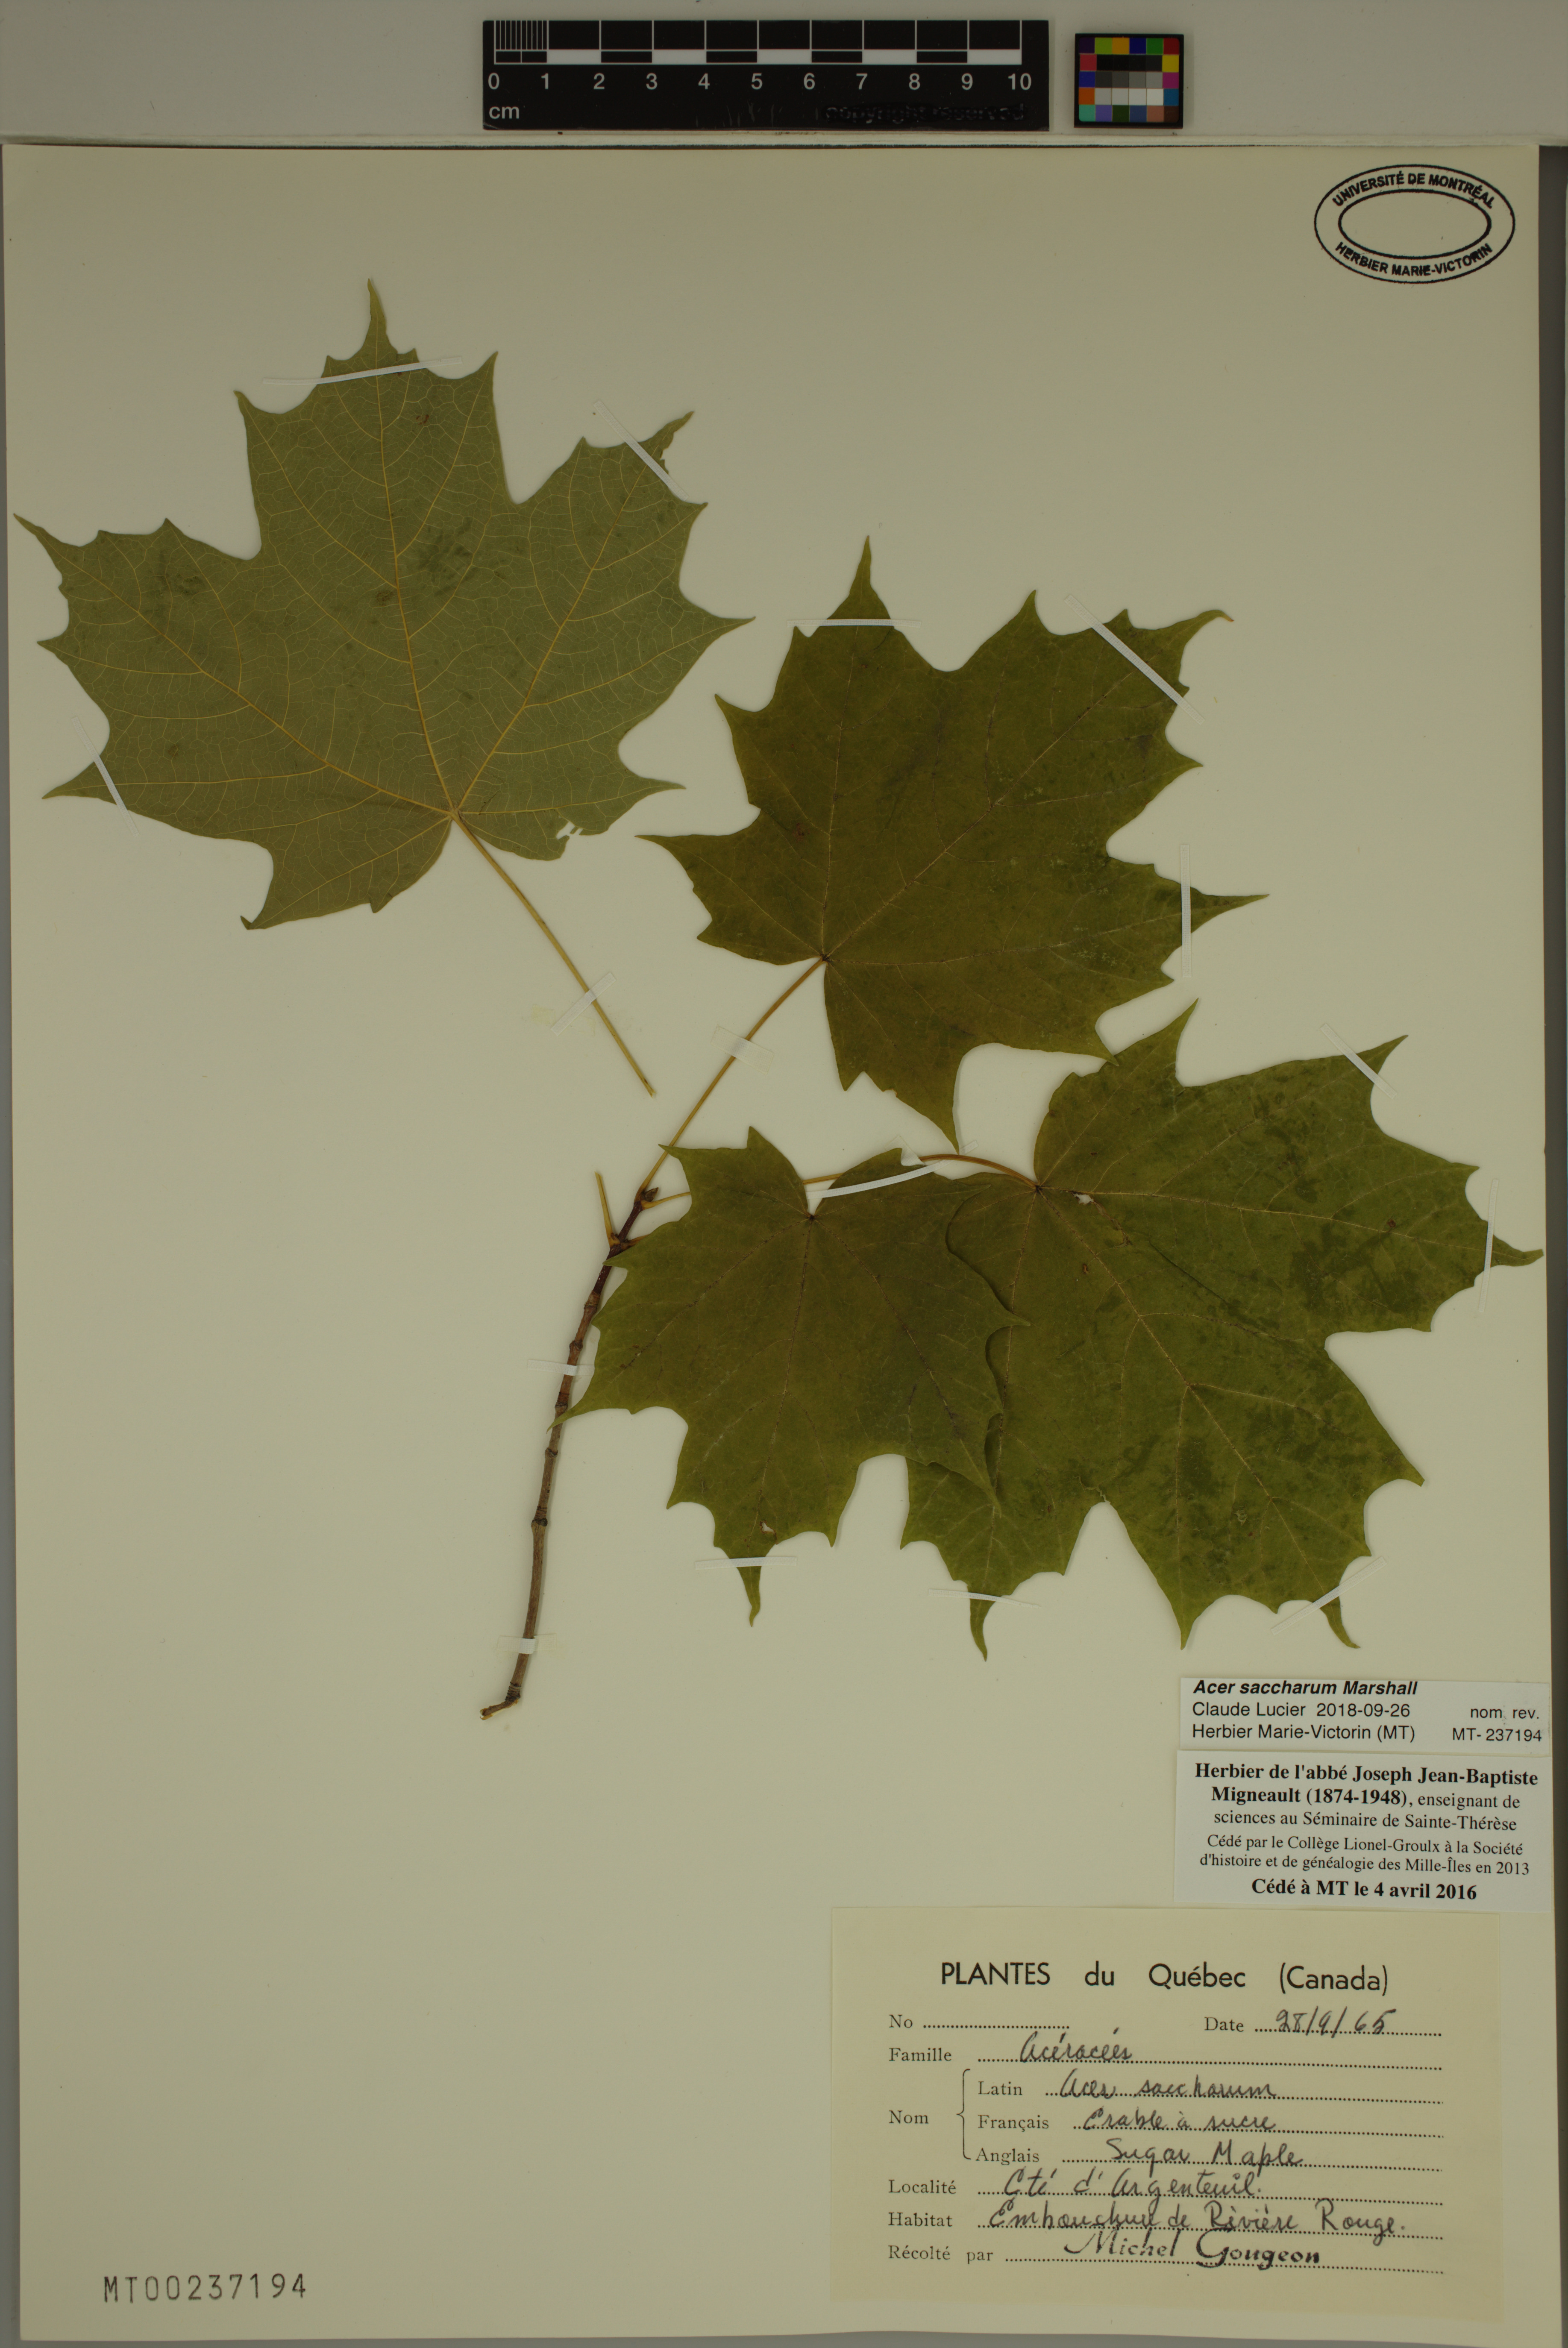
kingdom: Plantae
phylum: Tracheophyta
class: Magnoliopsida
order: Sapindales
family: Sapindaceae
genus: Acer
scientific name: Acer saccharum
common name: Sugar maple
